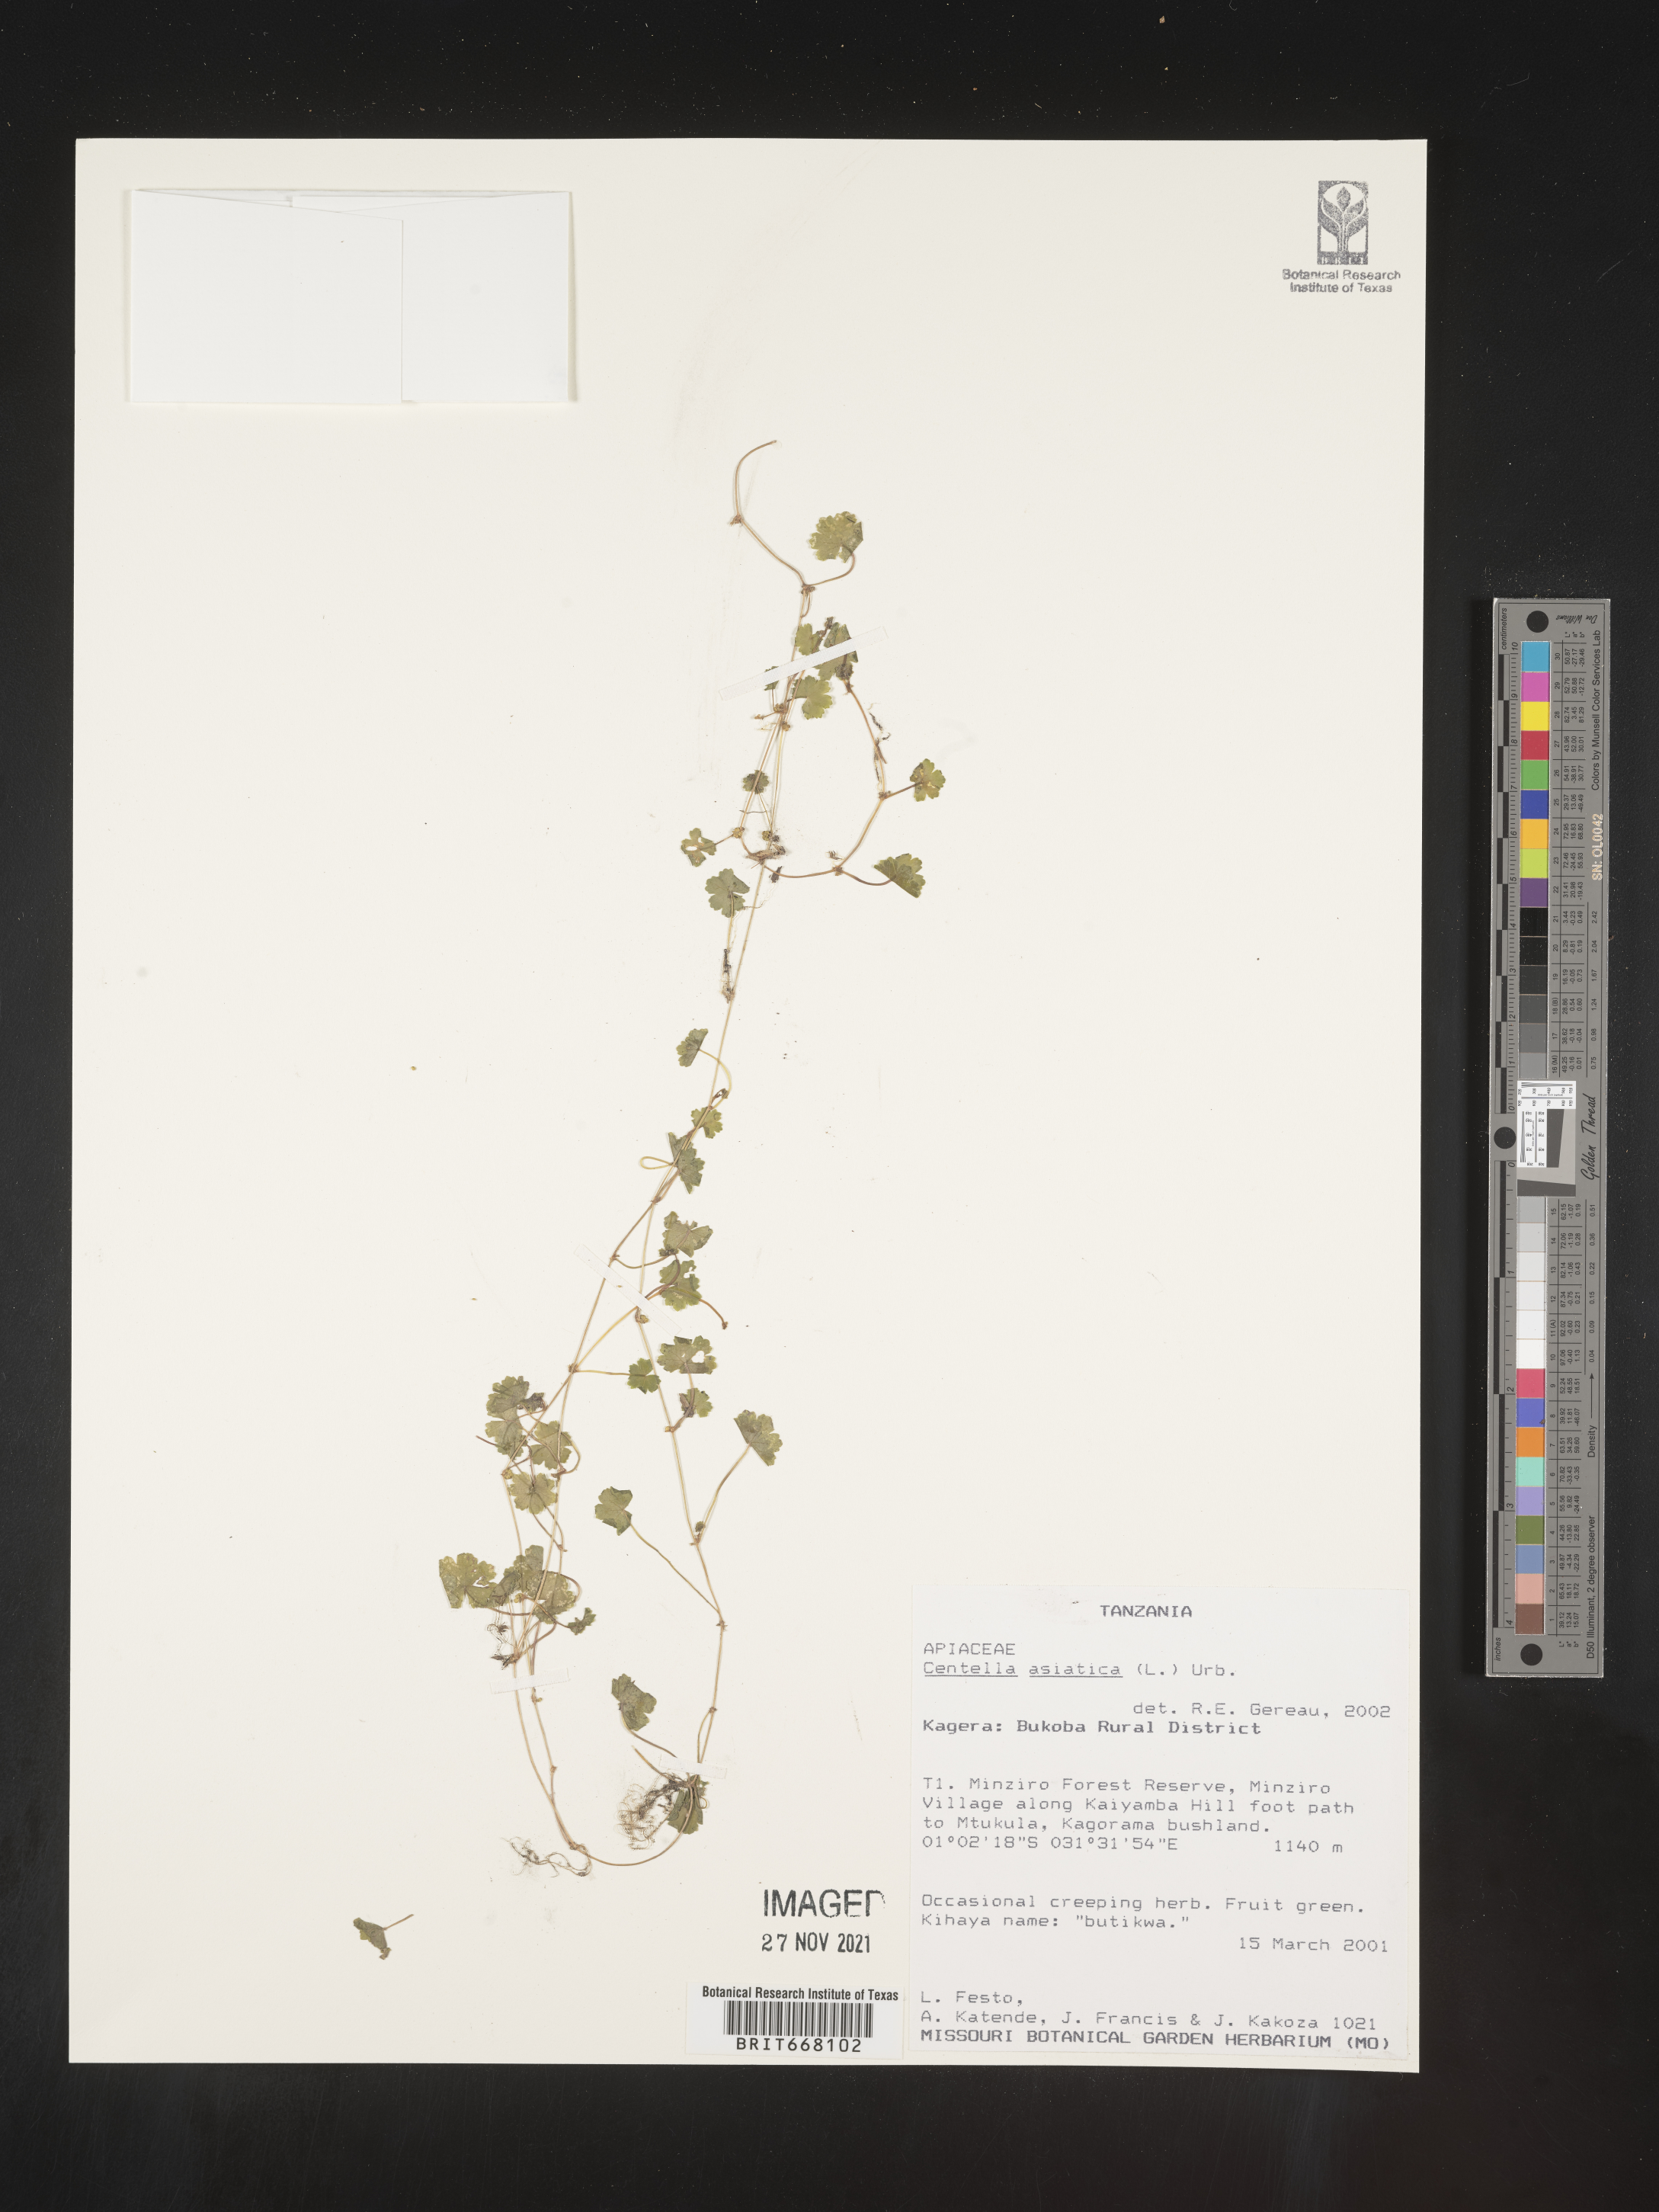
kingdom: Plantae
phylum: Tracheophyta
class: Magnoliopsida
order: Apiales
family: Apiaceae
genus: Centella
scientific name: Centella
